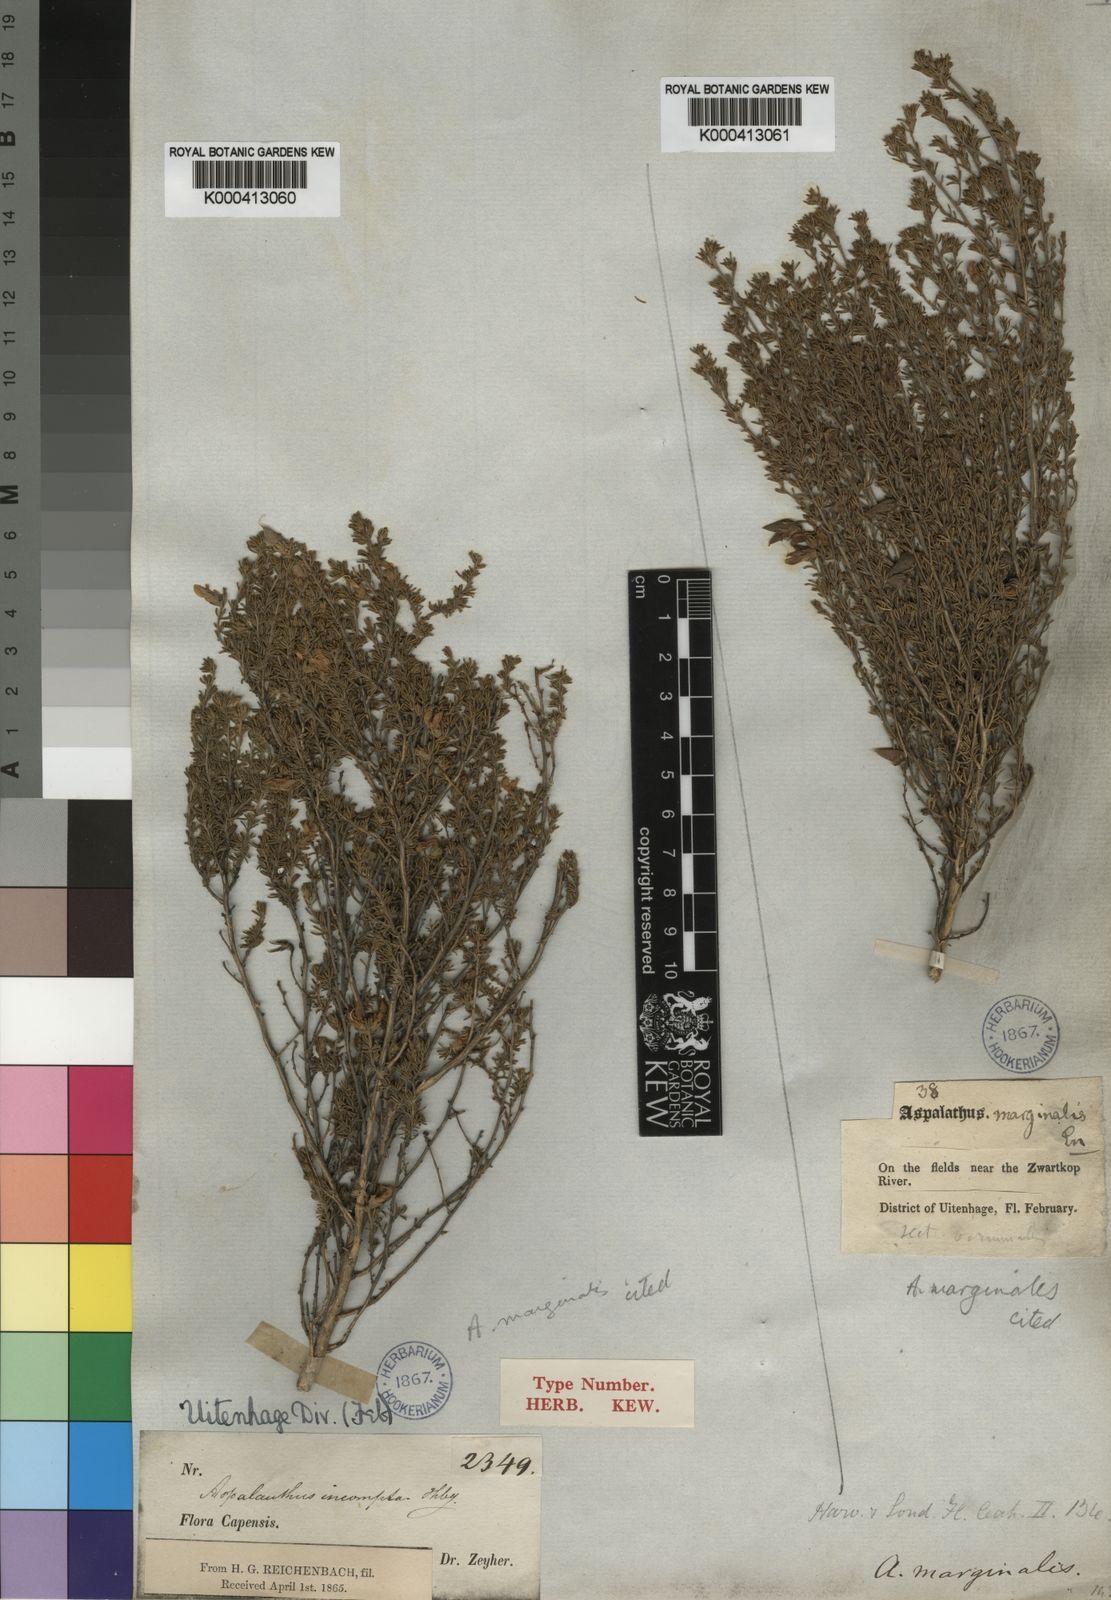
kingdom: Plantae
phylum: Tracheophyta
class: Magnoliopsida
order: Fabales
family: Fabaceae
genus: Aspalathus
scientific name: Aspalathus marginalis
